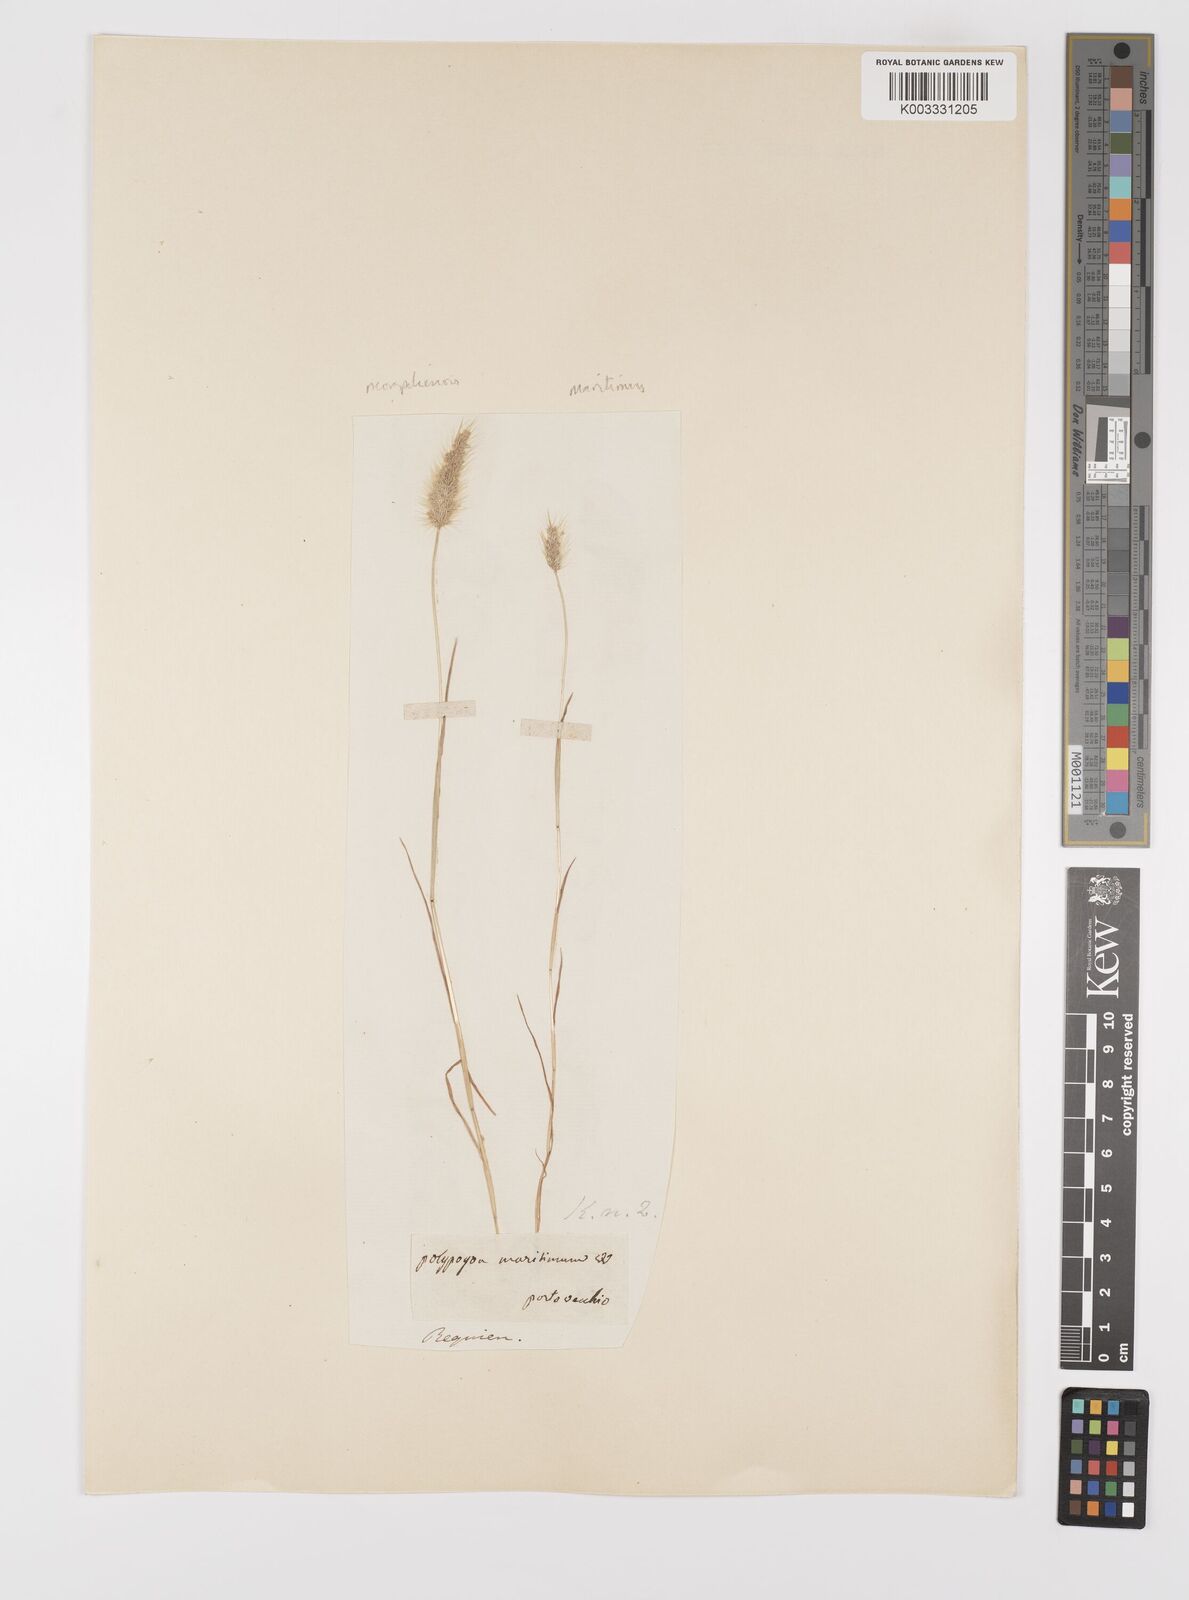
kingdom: Plantae
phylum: Tracheophyta
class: Liliopsida
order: Poales
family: Poaceae
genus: Polypogon
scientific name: Polypogon maritimus
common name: Mediterranean rabbitsfoot grass
